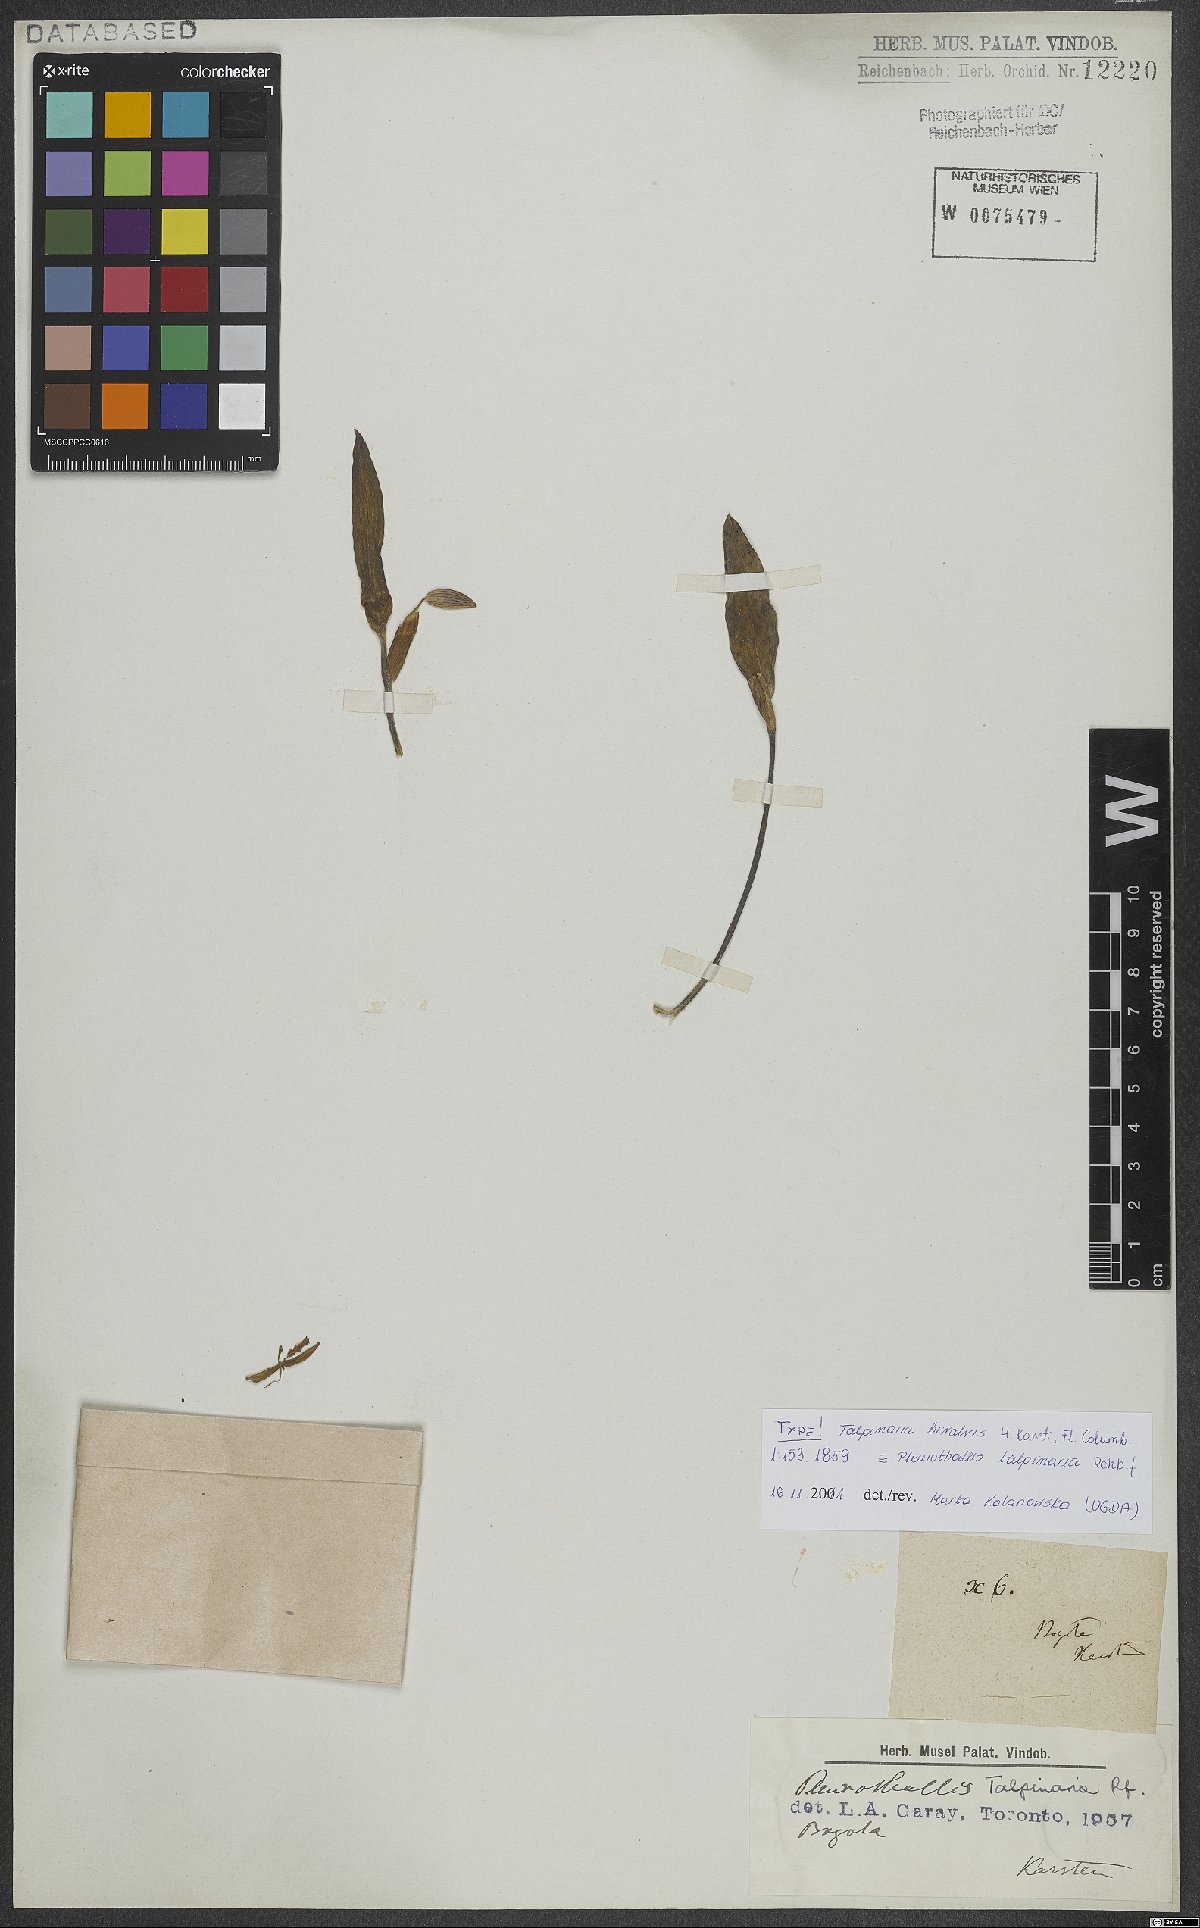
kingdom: Plantae
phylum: Tracheophyta
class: Liliopsida
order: Asparagales
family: Orchidaceae
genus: Pleurothallis
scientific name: Pleurothallis talpinaria
